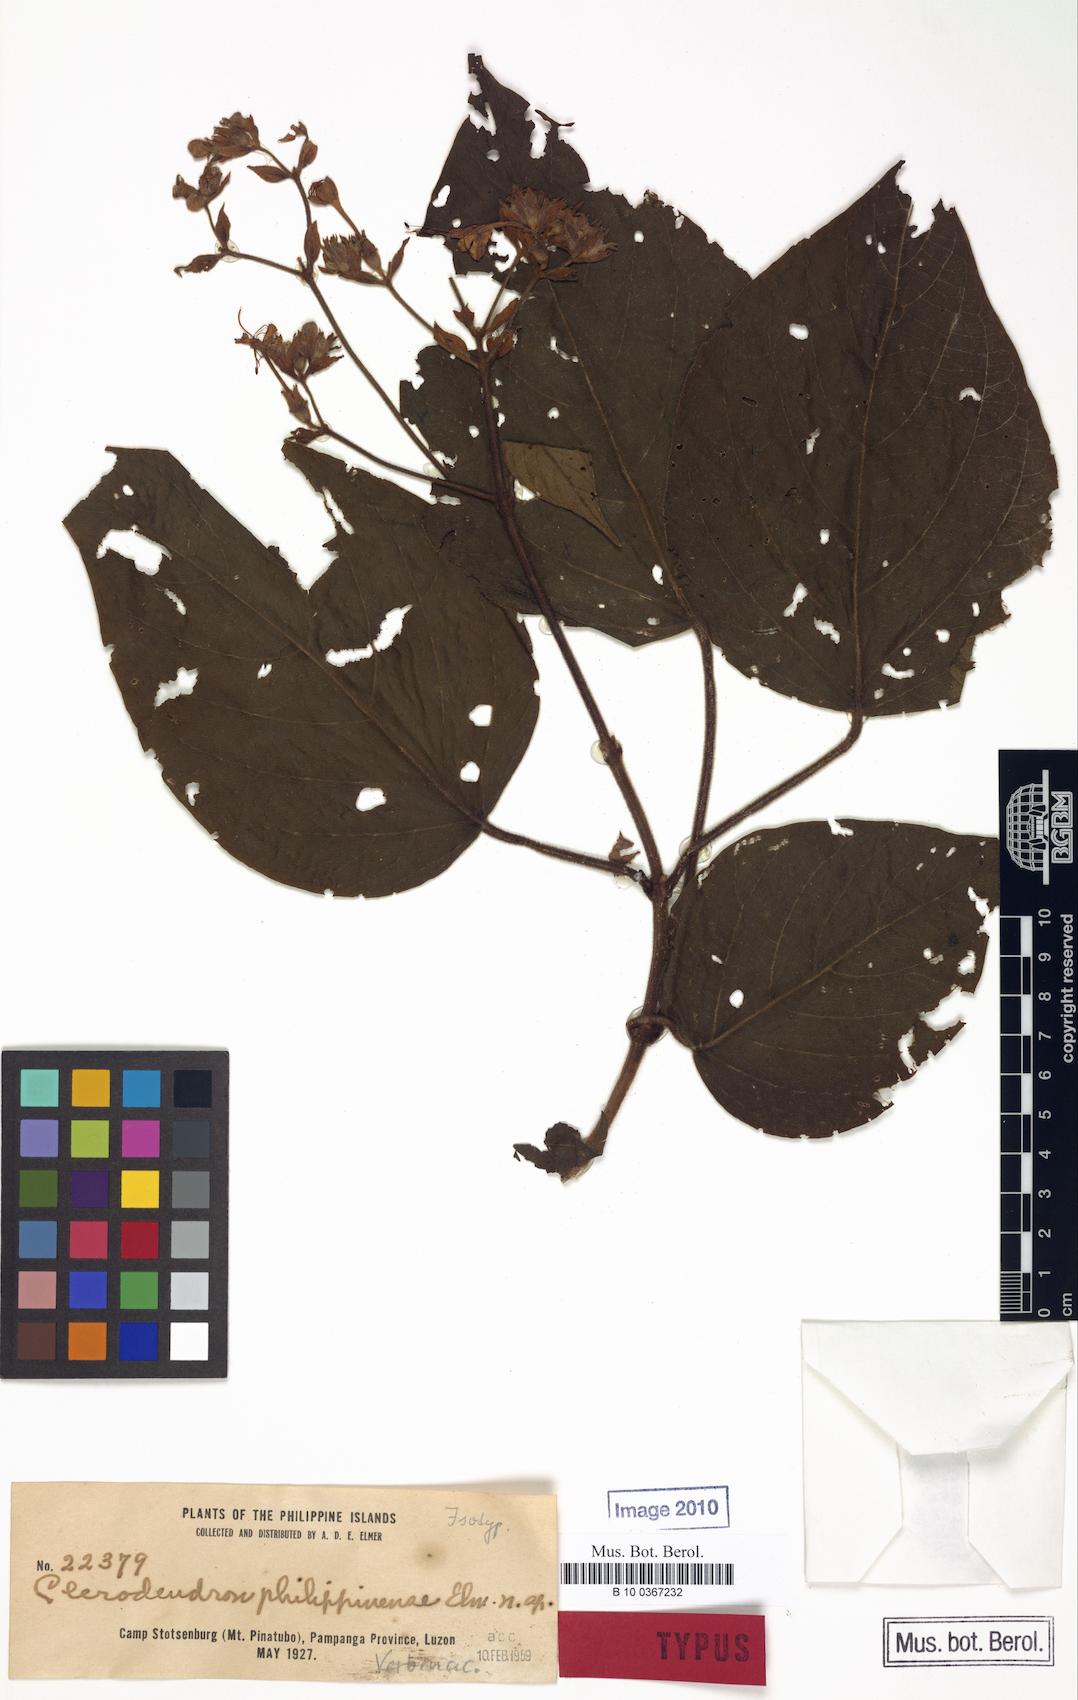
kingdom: Plantae
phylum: Tracheophyta
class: Magnoliopsida
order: Lamiales
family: Lamiaceae
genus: Clerodendrum
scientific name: Clerodendrum infortunatum
